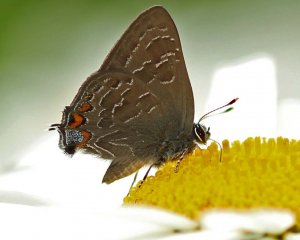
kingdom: Animalia
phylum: Arthropoda
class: Insecta
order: Lepidoptera
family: Lycaenidae
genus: Satyrium
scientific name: Satyrium liparops
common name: Striped Hairstreak
